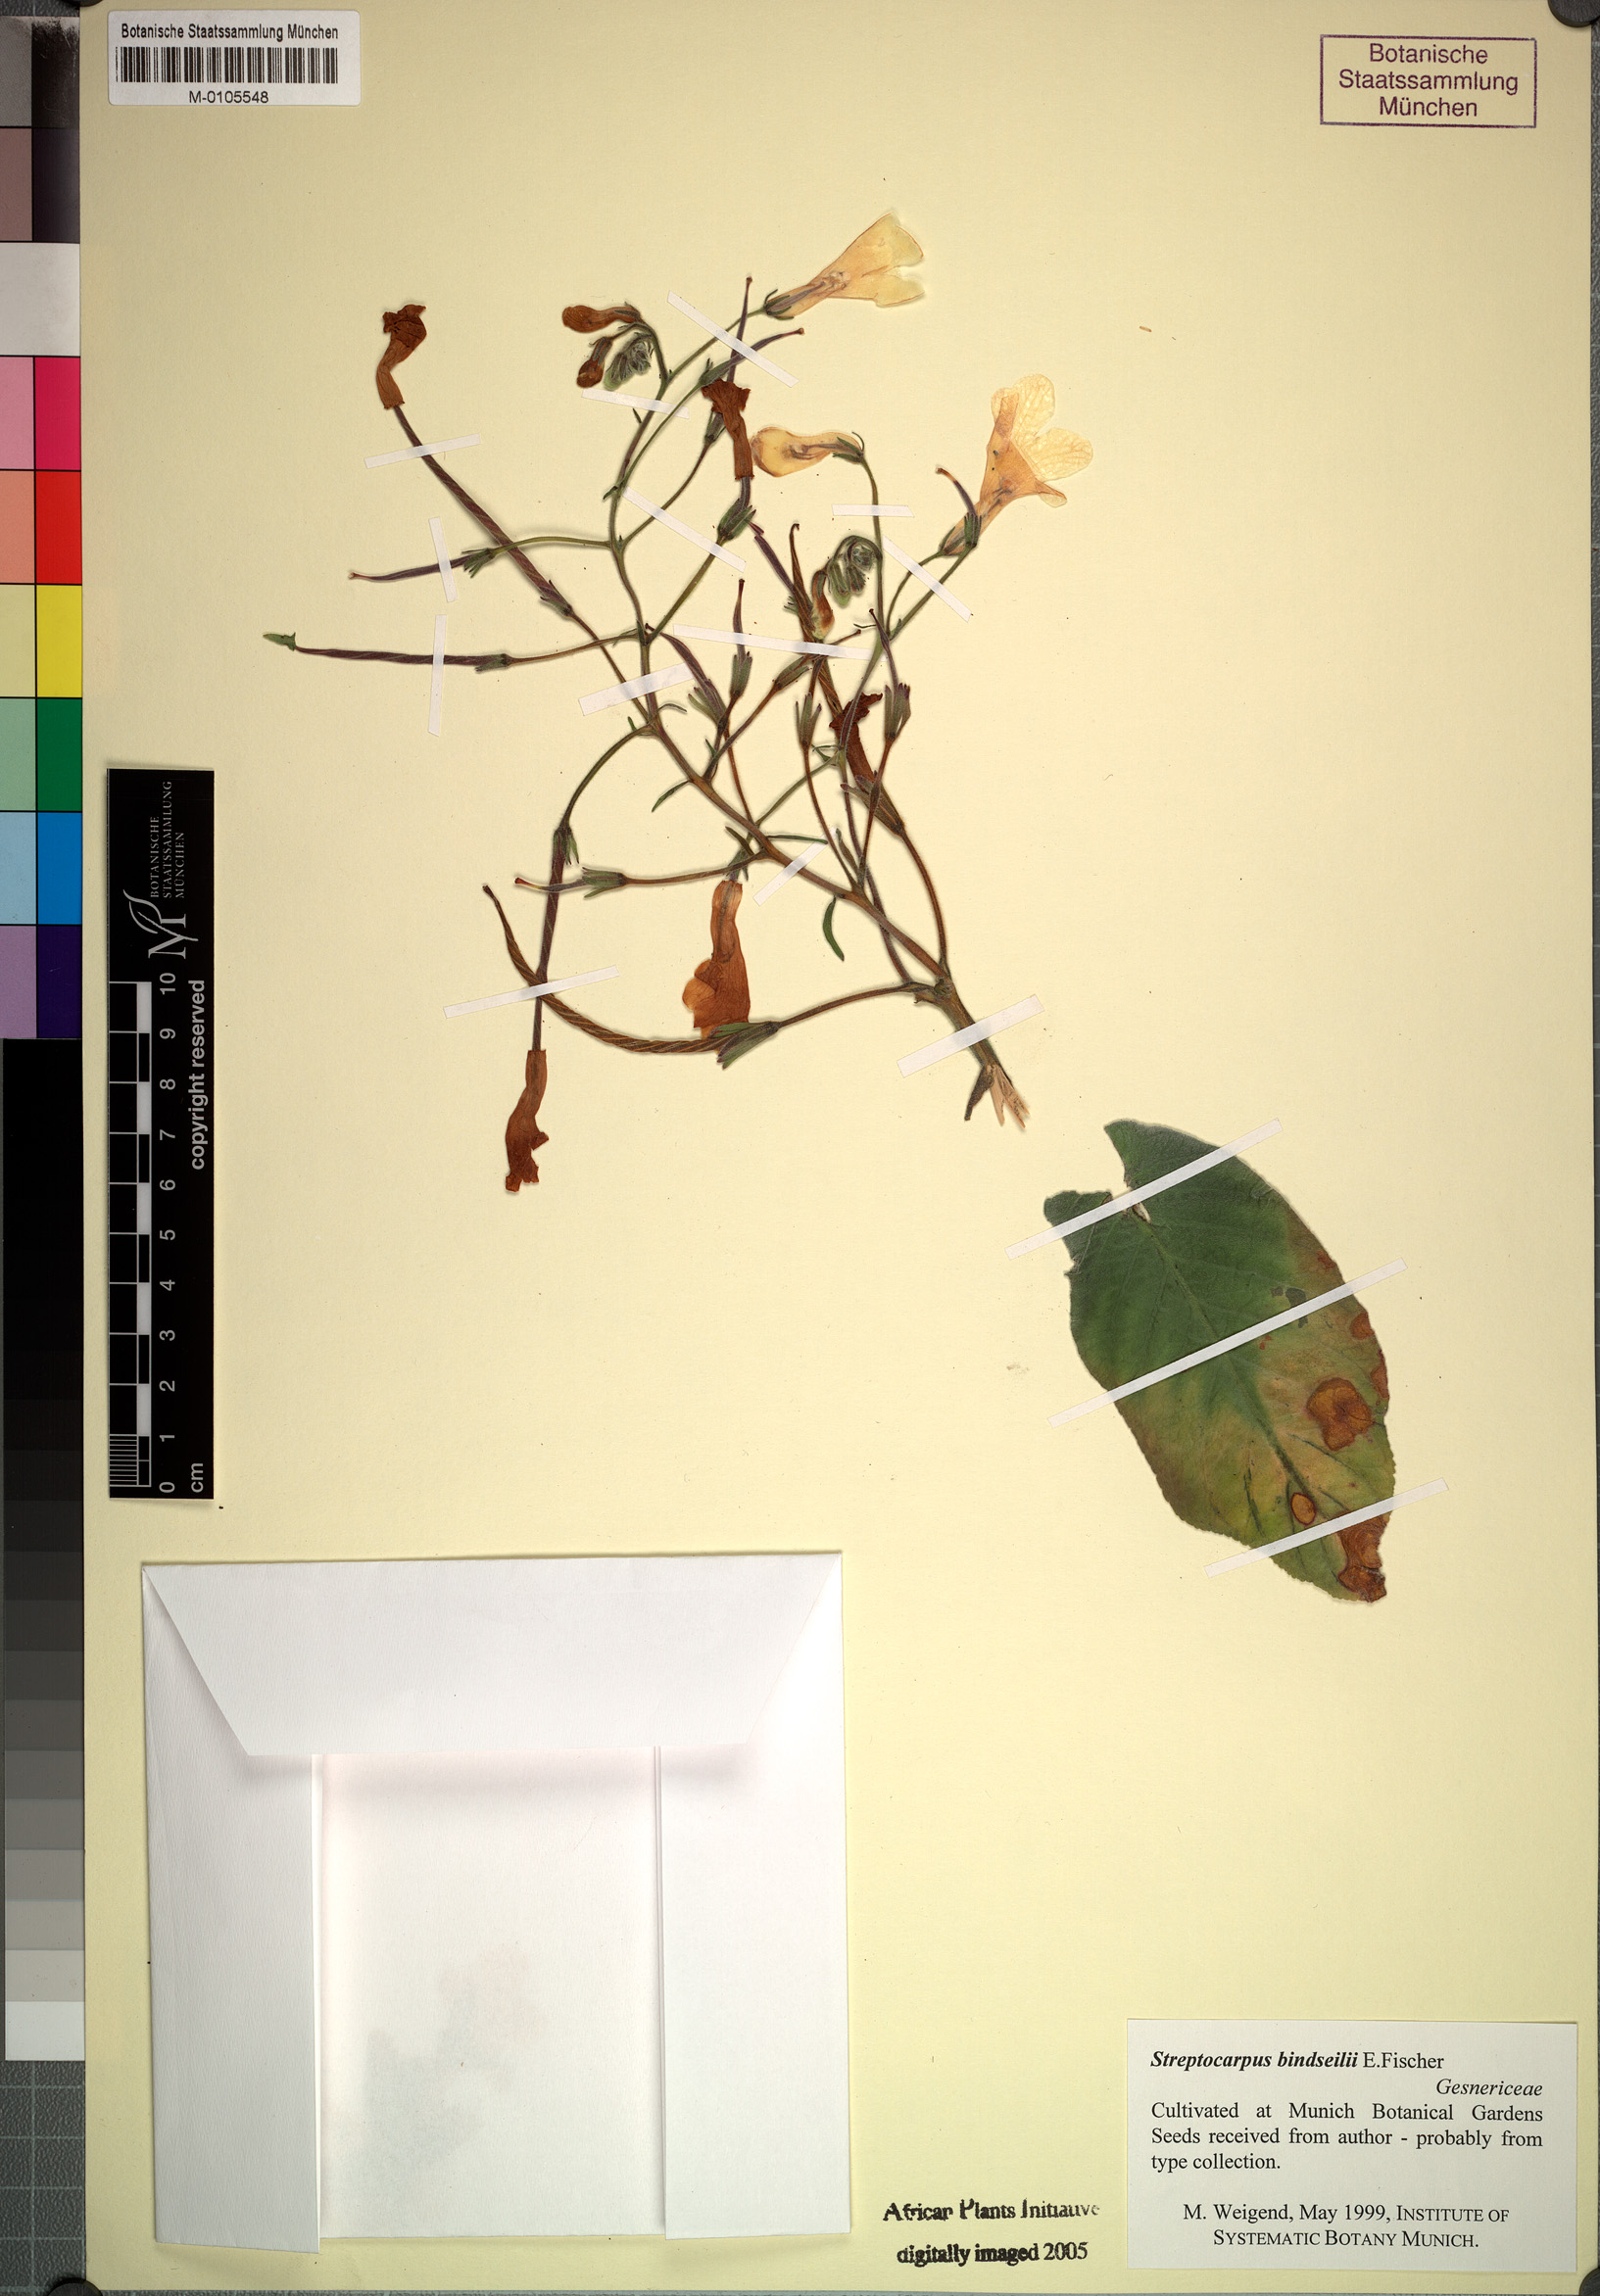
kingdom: Plantae
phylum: Tracheophyta
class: Magnoliopsida
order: Lamiales
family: Gesneriaceae
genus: Streptocarpus
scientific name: Streptocarpus bindseili
